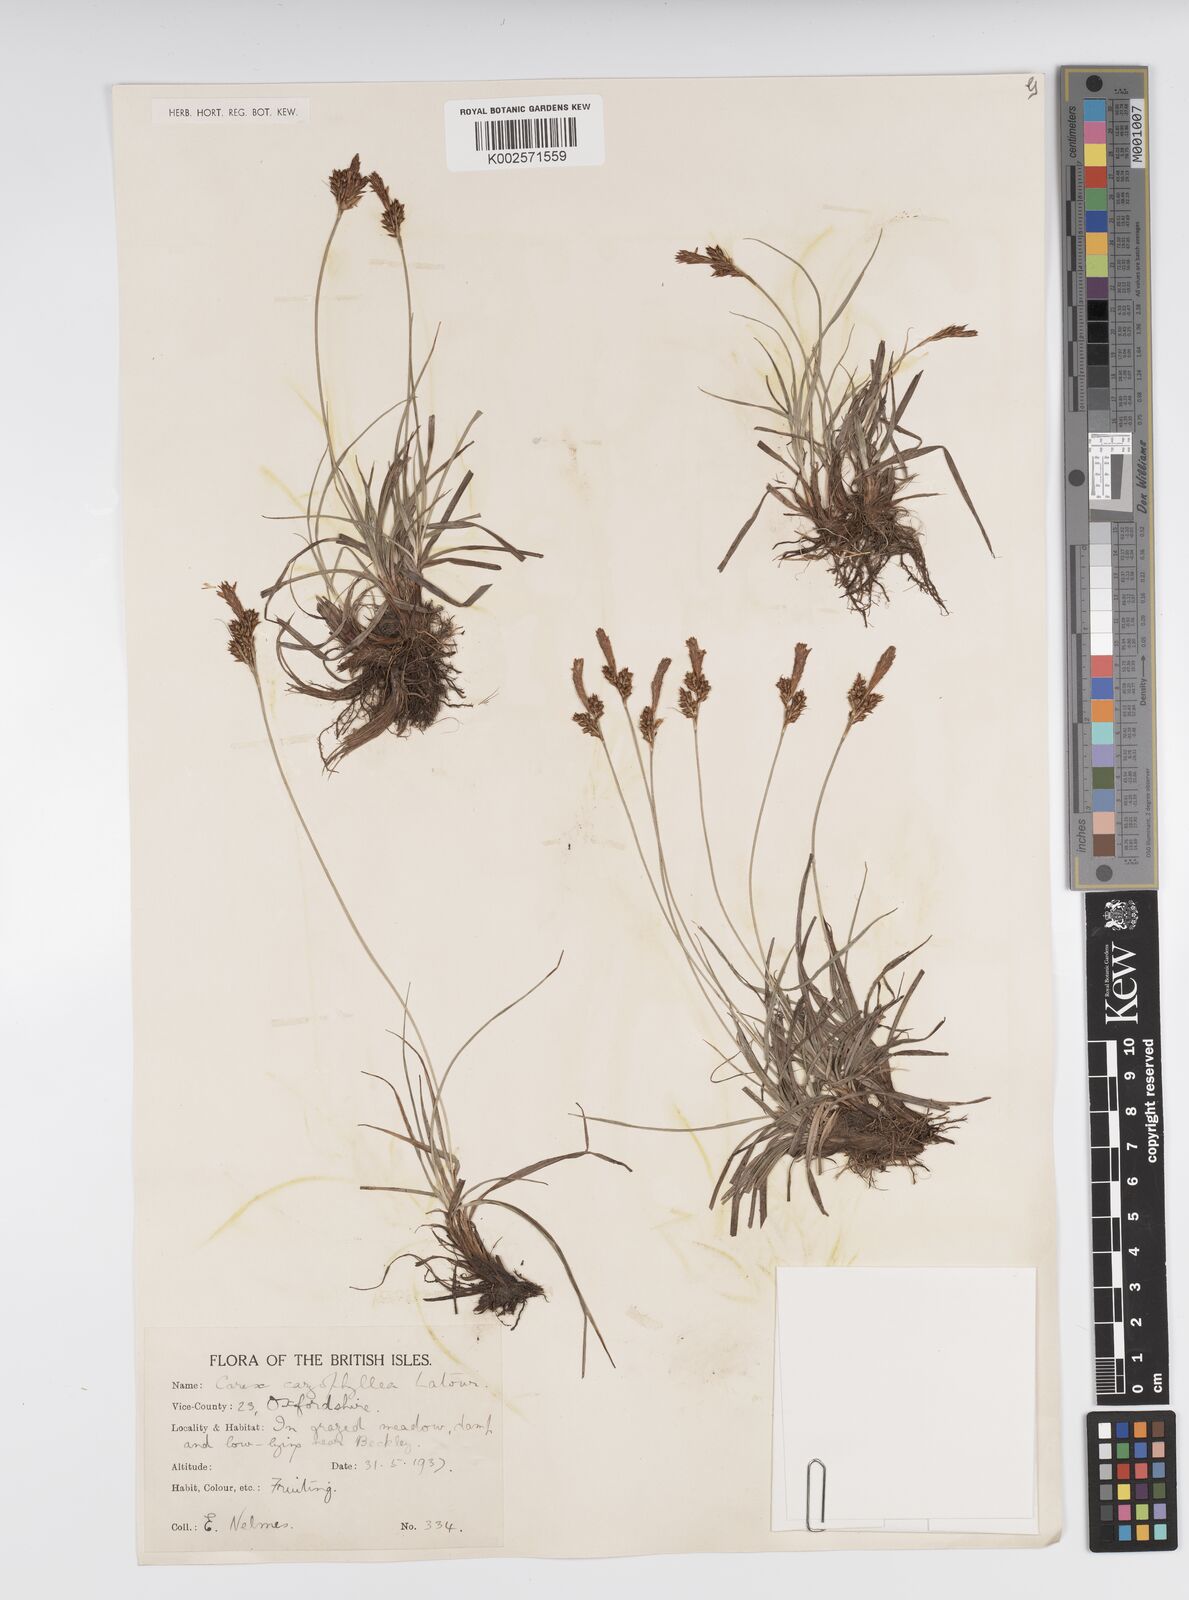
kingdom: Plantae
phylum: Tracheophyta
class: Liliopsida
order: Poales
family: Cyperaceae
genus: Carex
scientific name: Carex caryophyllea
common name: Spring sedge
